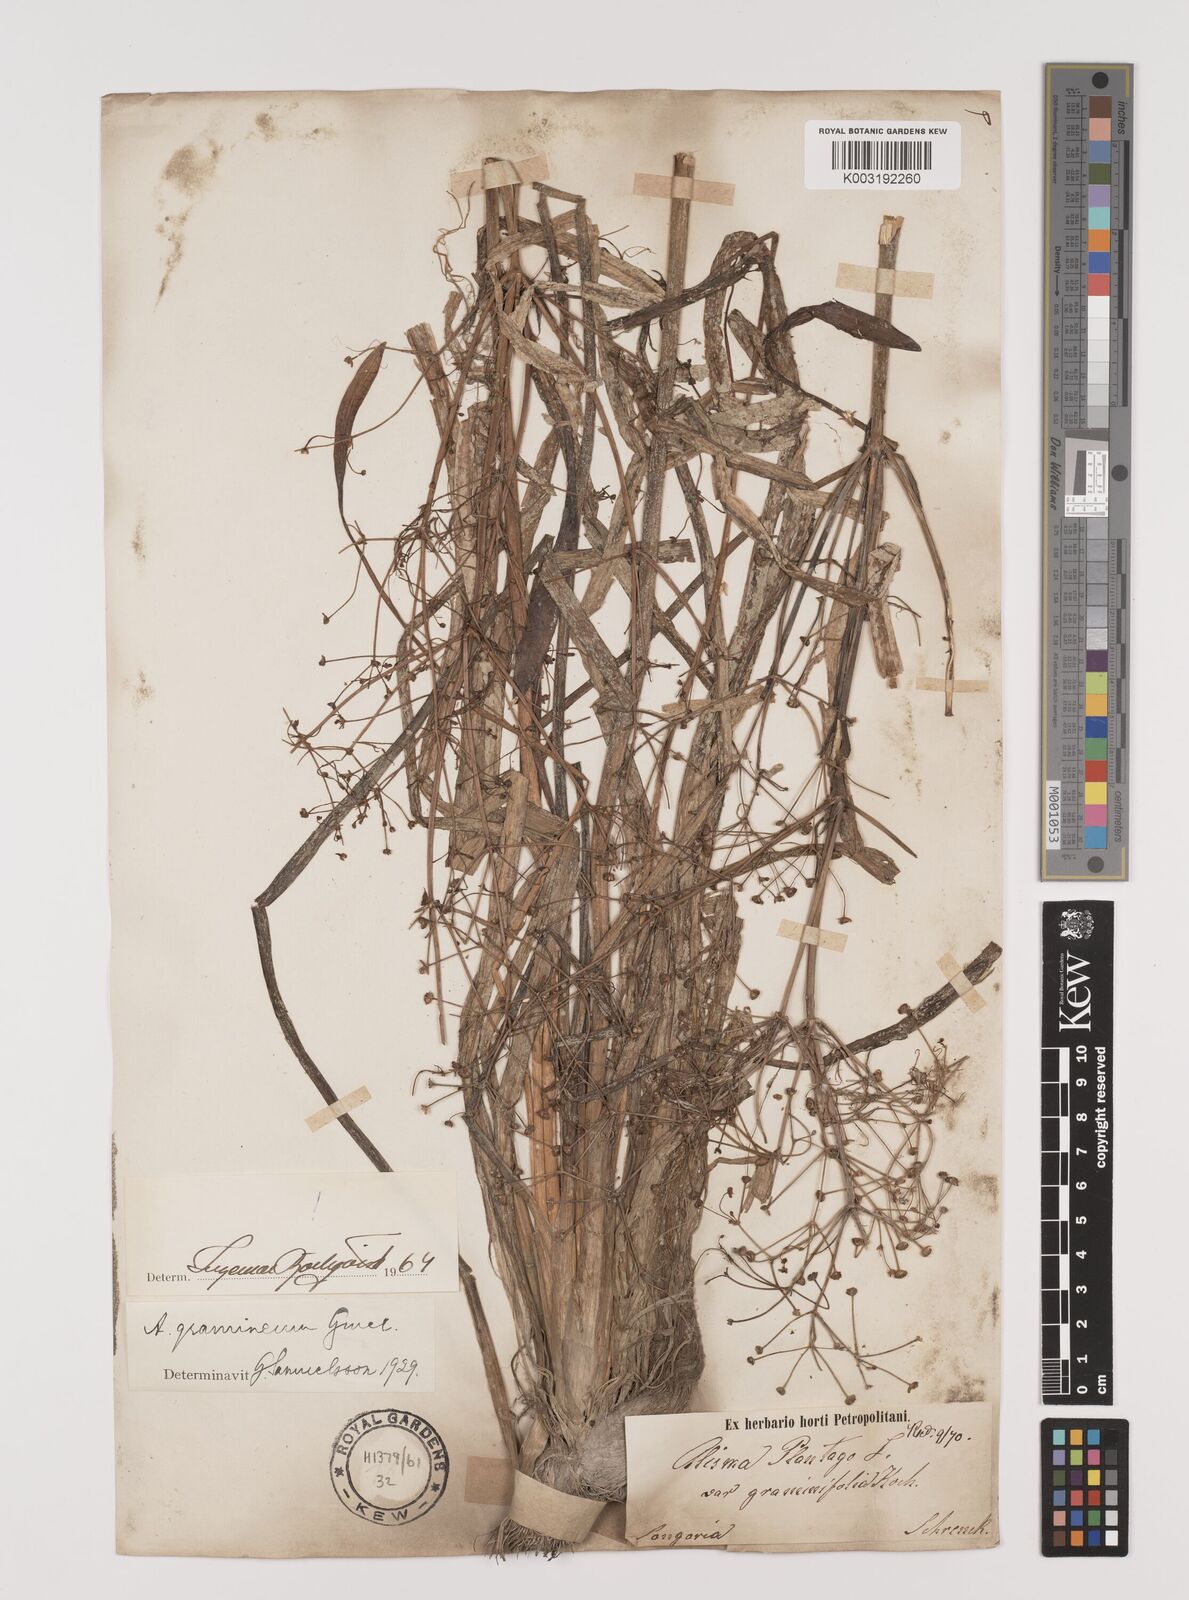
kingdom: Plantae
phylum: Tracheophyta
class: Liliopsida
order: Alismatales
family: Alismataceae
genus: Alisma
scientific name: Alisma gramineum
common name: Ribbon-leaved water-plantain
